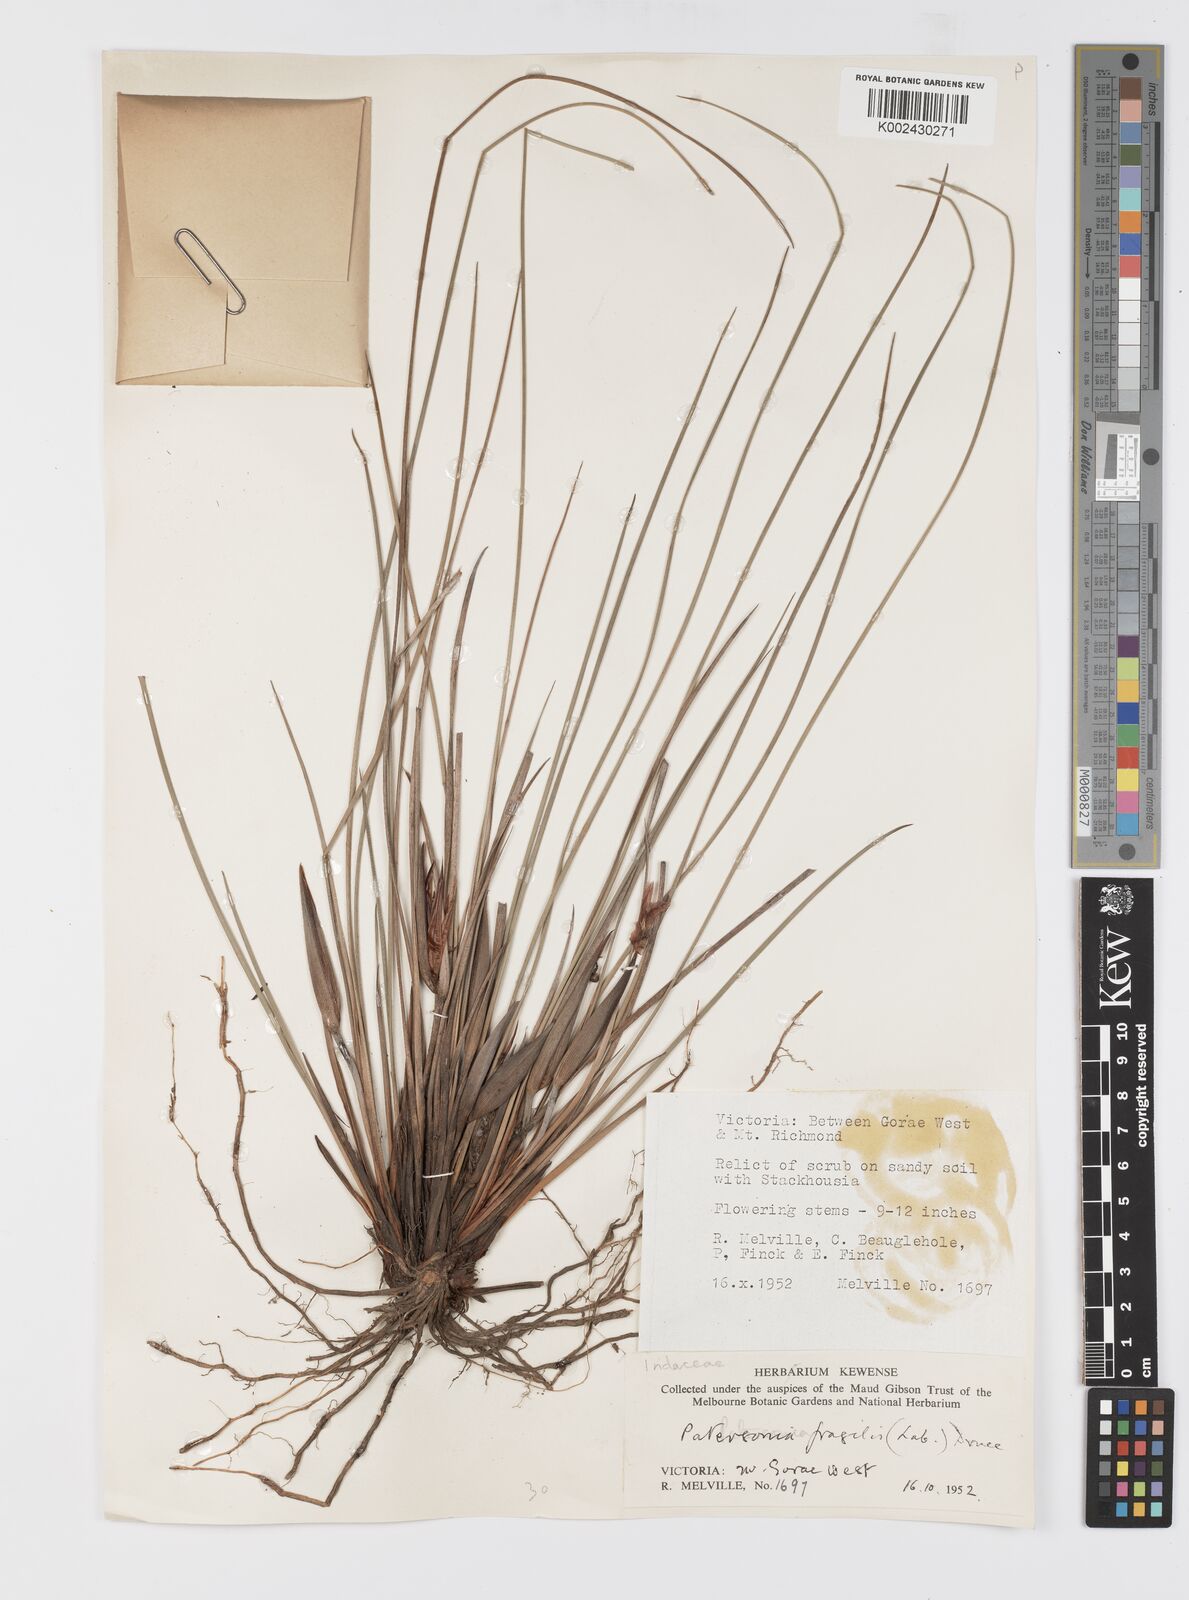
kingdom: Plantae
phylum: Tracheophyta
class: Liliopsida
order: Asparagales
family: Iridaceae
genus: Patersonia
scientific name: Patersonia fragilis
